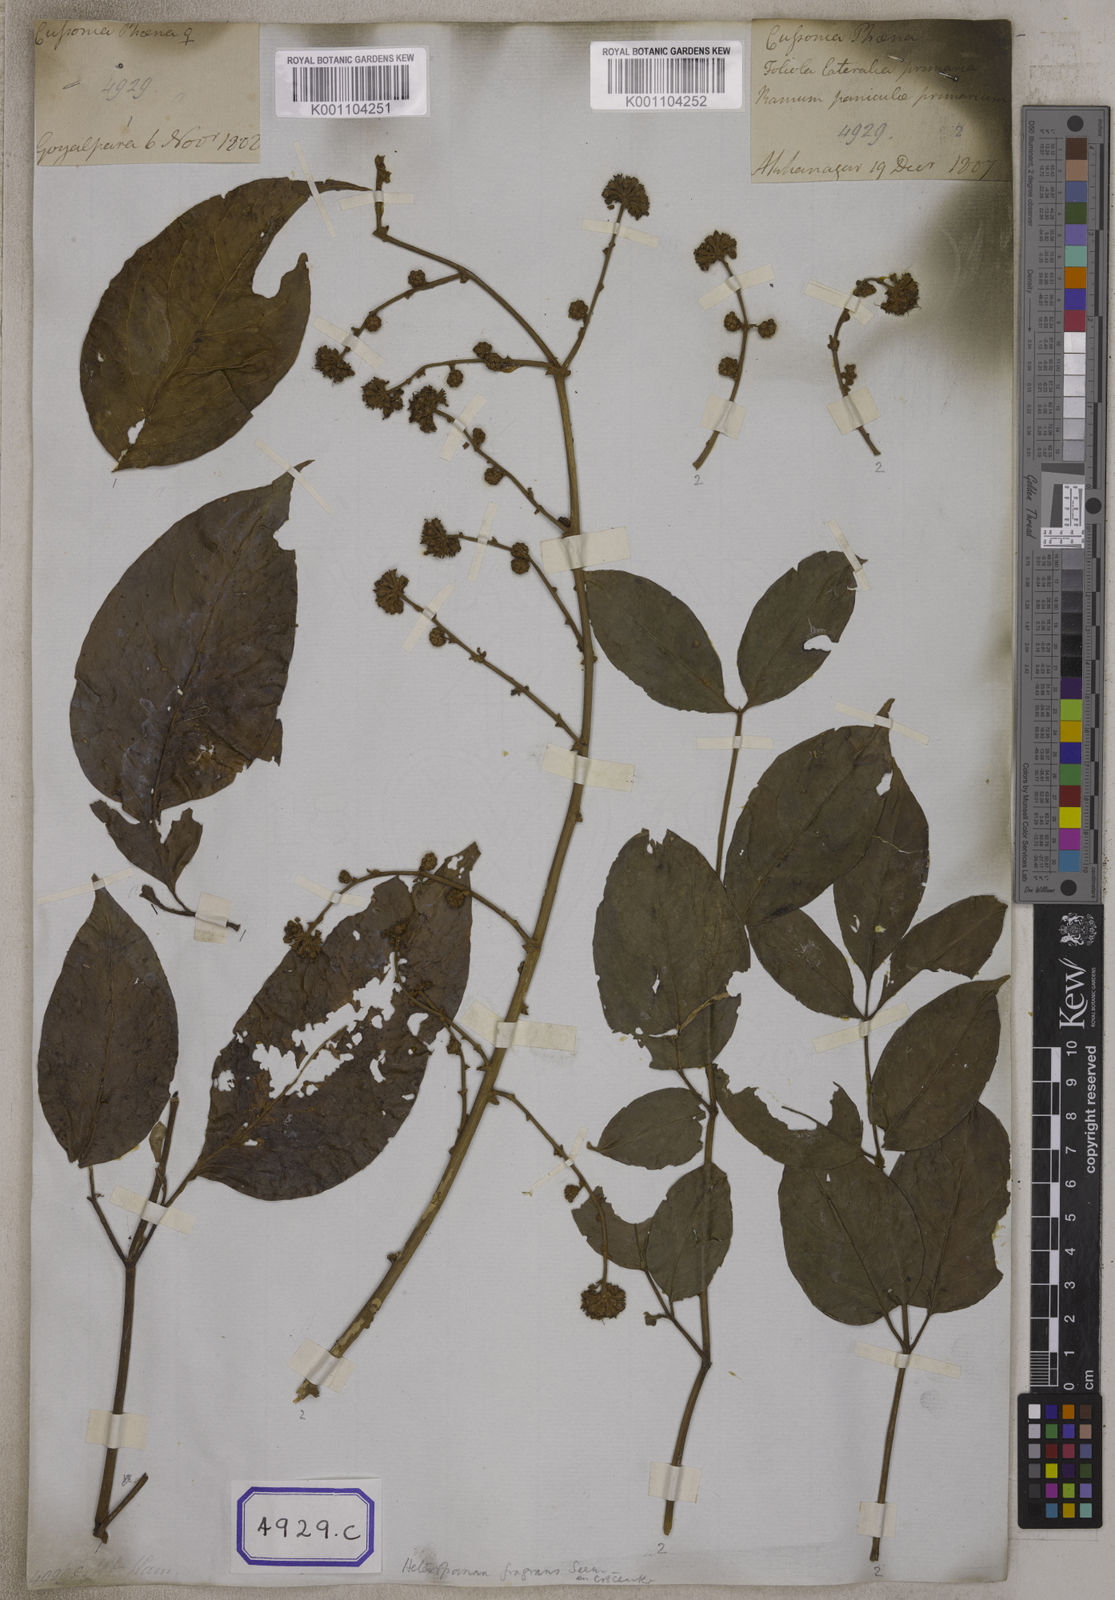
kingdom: Plantae
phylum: Tracheophyta
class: Magnoliopsida
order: Apiales
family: Araliaceae
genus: Heteropanax
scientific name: Heteropanax fragrans
